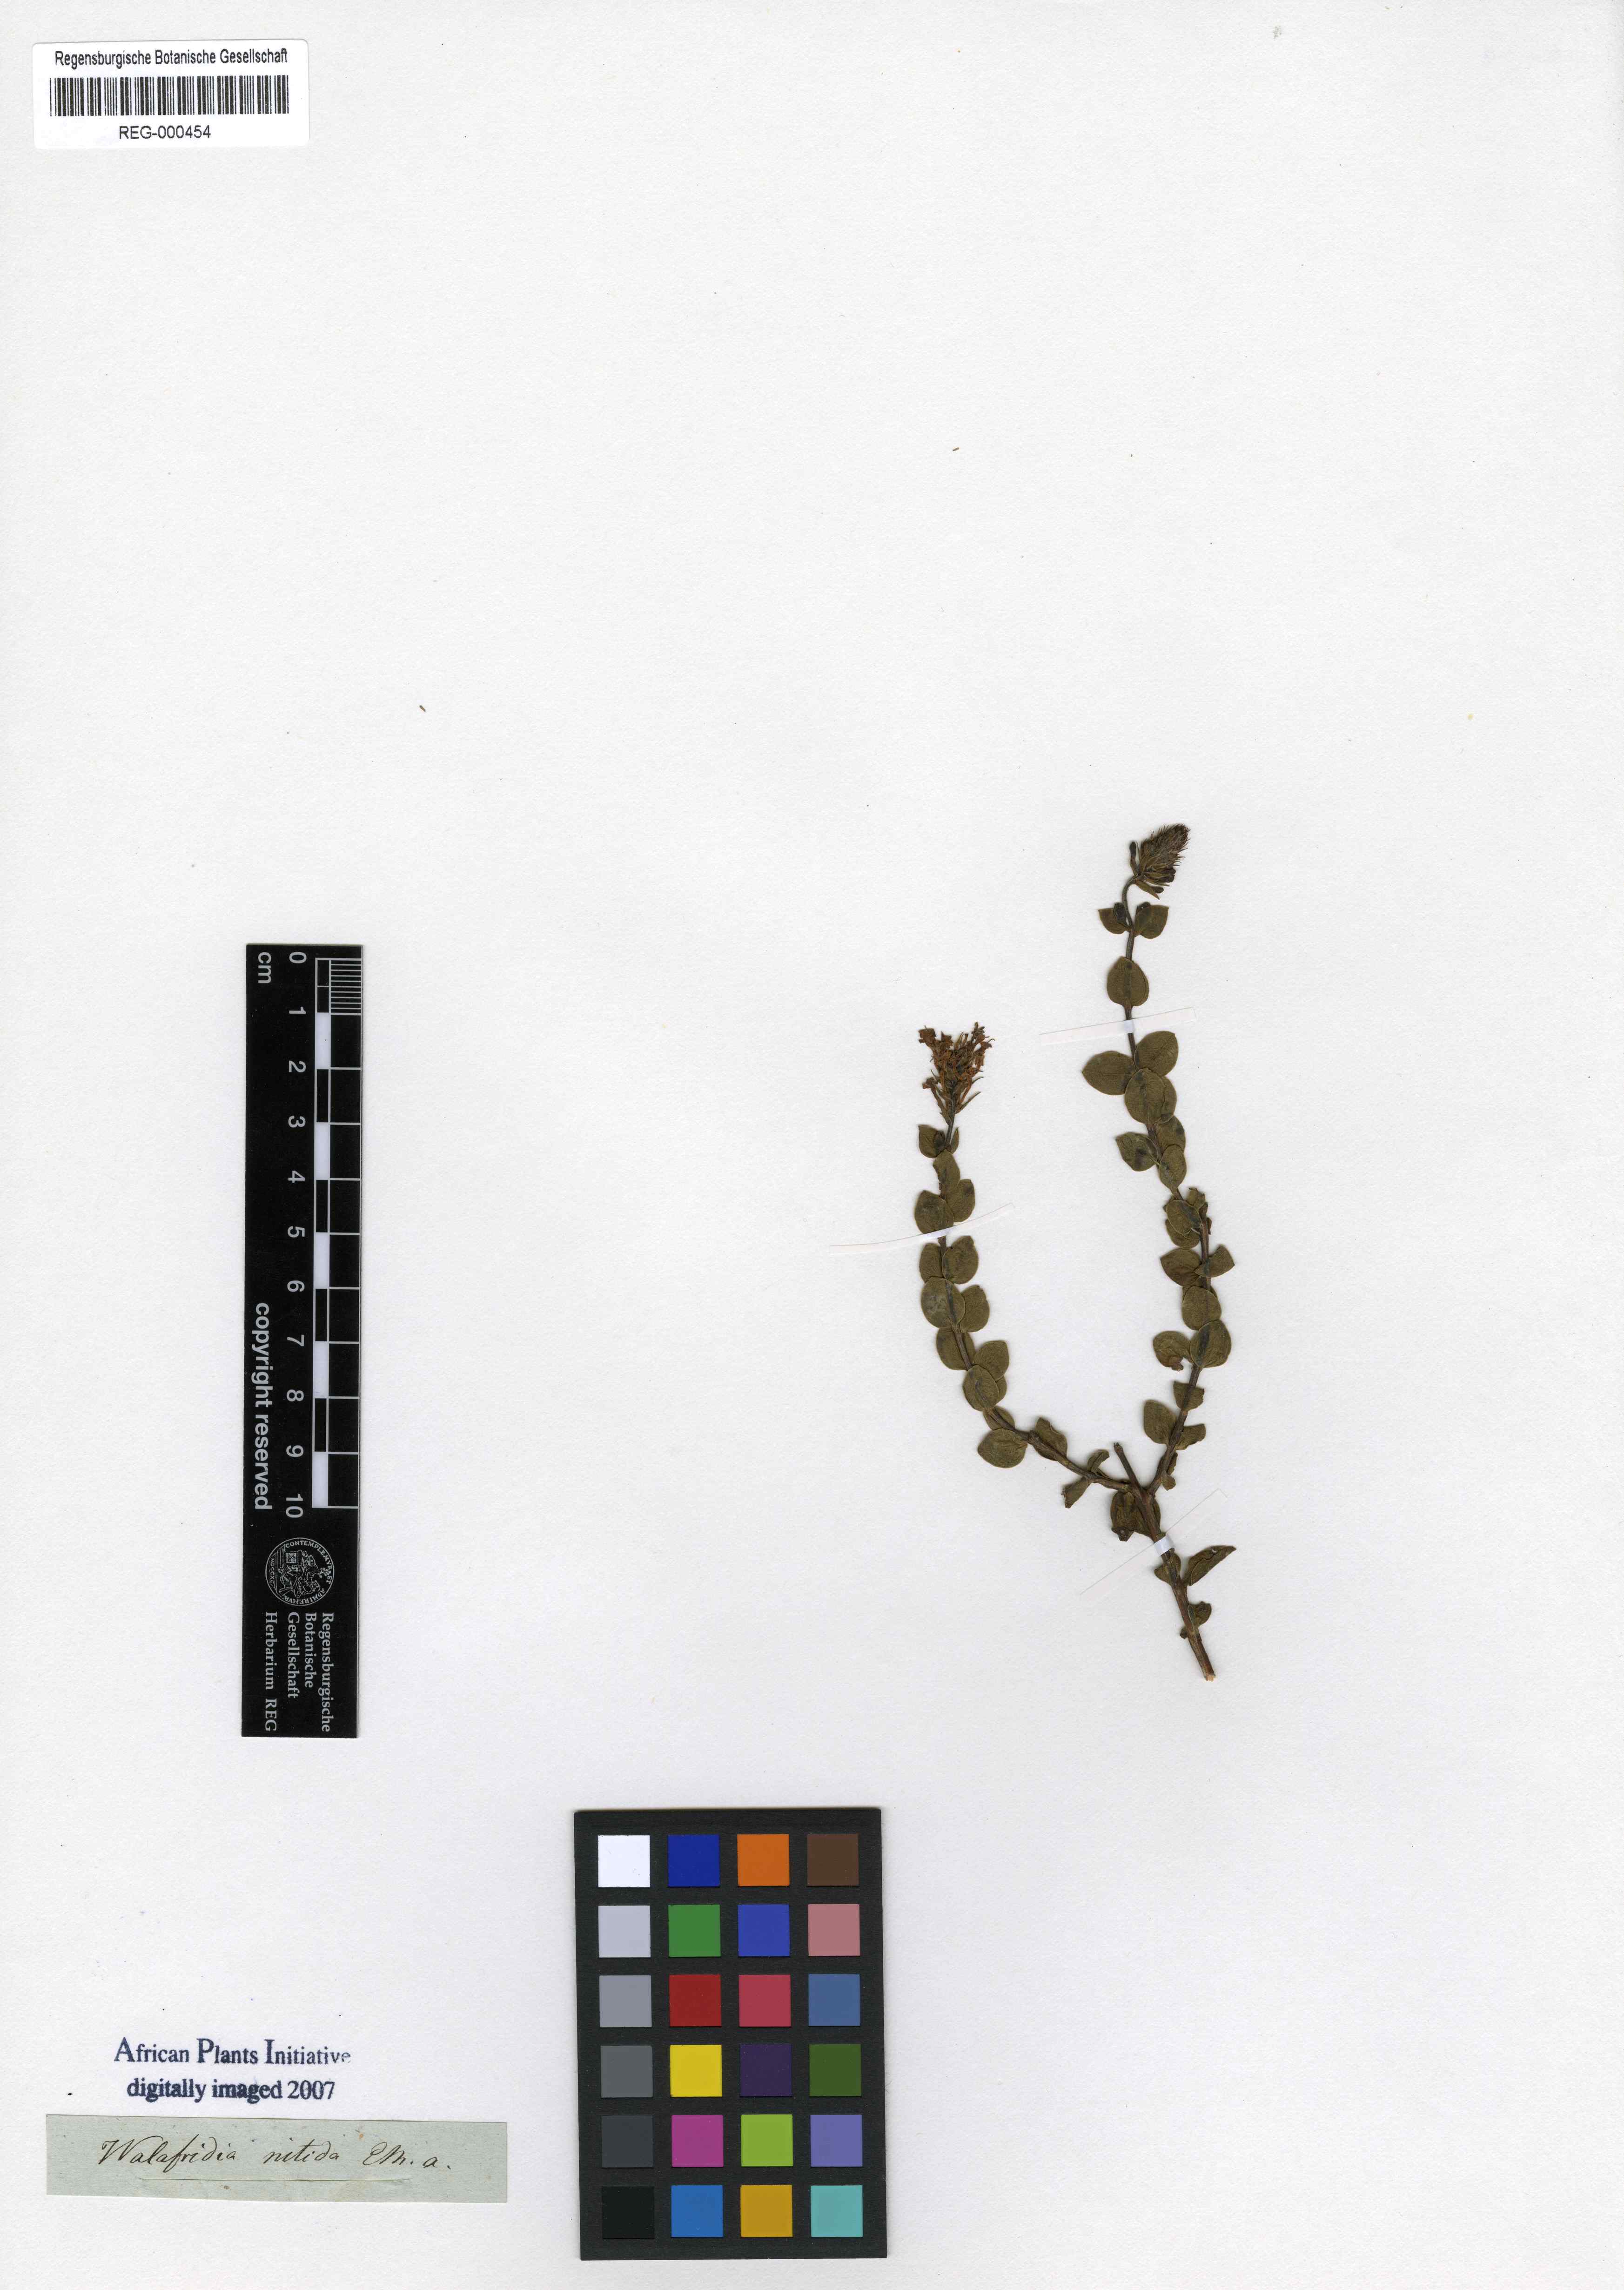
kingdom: Plantae
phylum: Tracheophyta
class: Magnoliopsida
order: Lamiales
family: Scrophulariaceae
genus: Selago
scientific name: Selago myrtifolia
